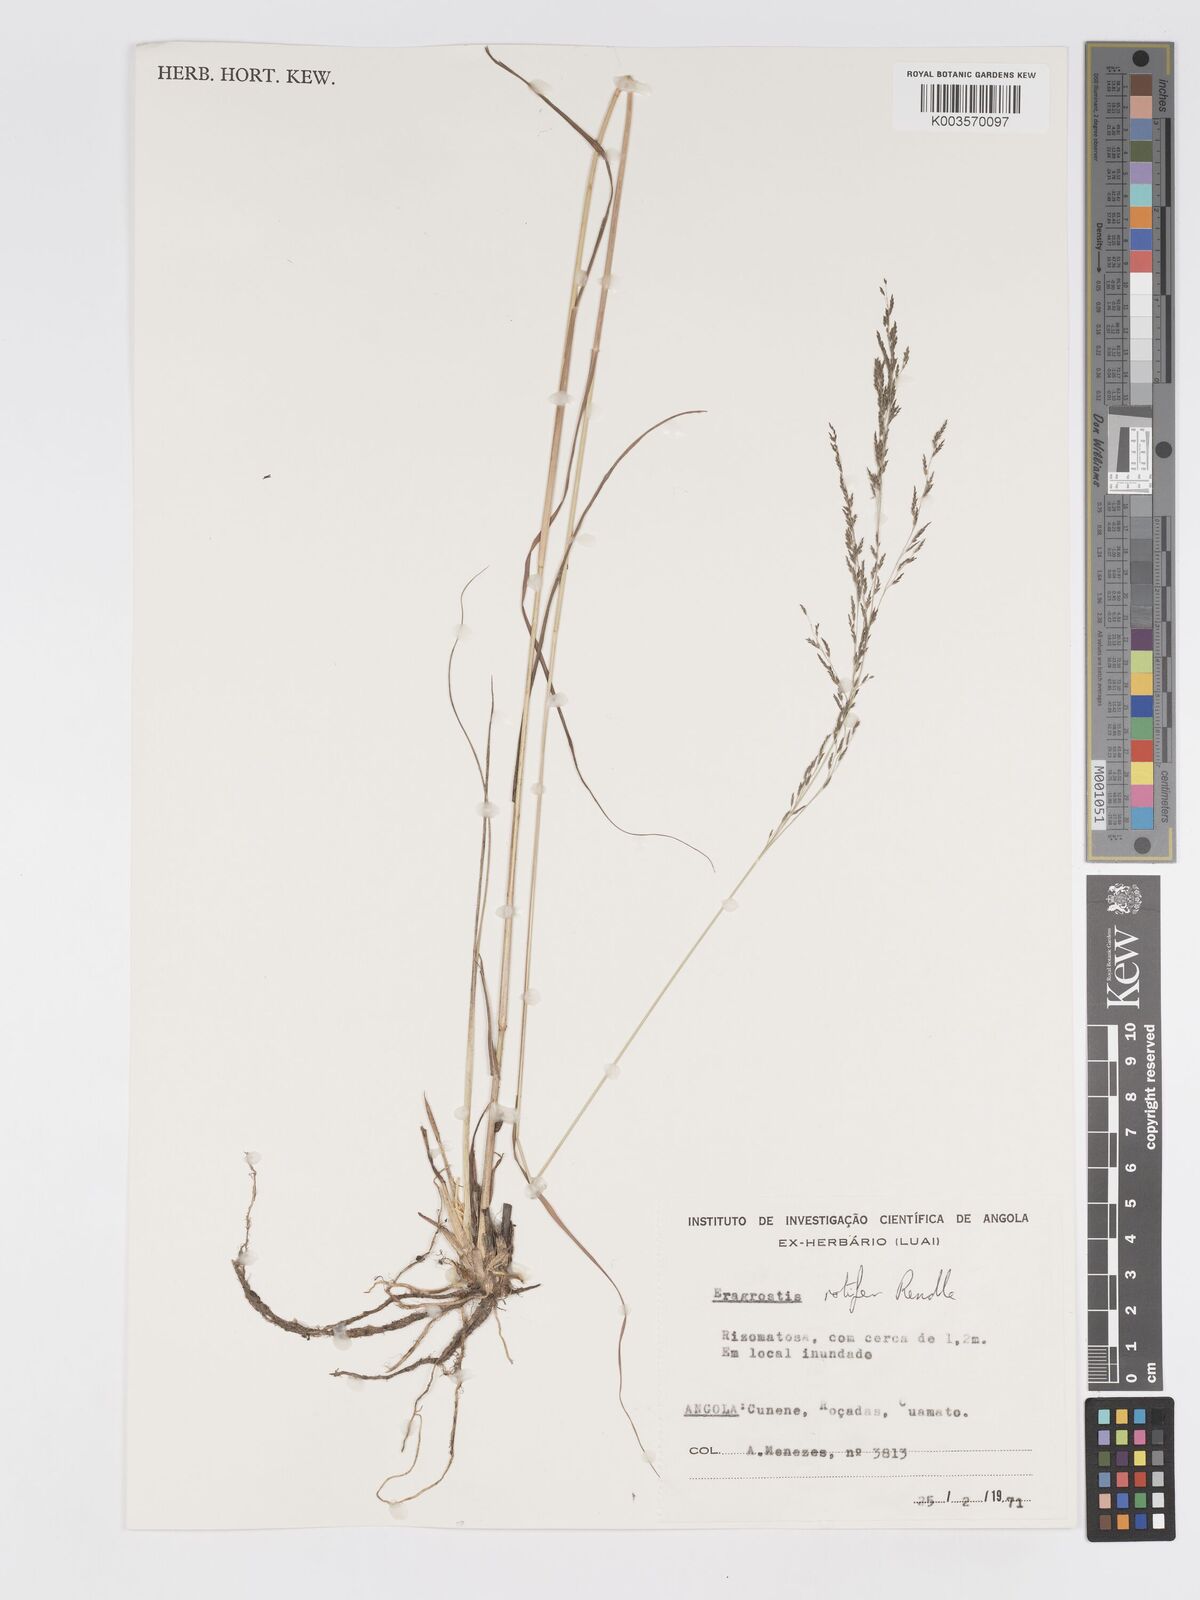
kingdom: Plantae
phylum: Tracheophyta
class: Liliopsida
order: Poales
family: Poaceae
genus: Eragrostis
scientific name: Eragrostis rotifer
